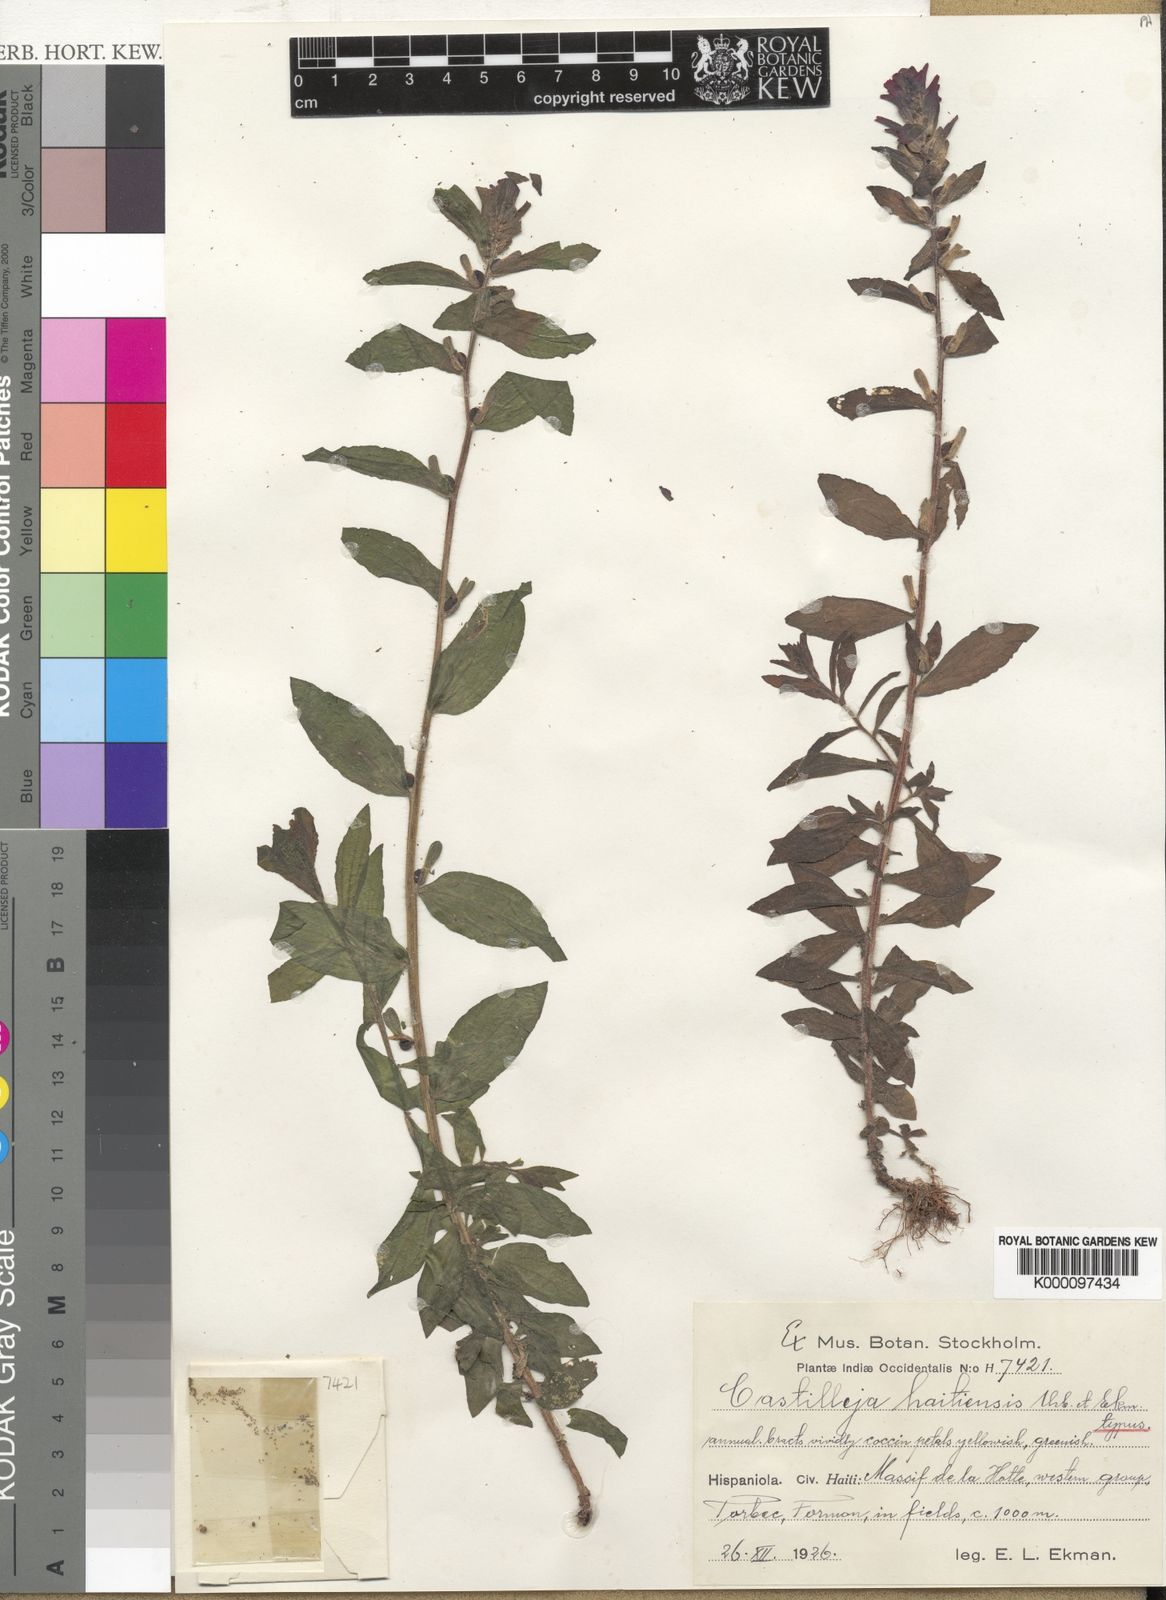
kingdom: Plantae
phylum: Tracheophyta
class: Magnoliopsida
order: Lamiales
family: Orobanchaceae
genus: Castilleja
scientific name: Castilleja arvensis
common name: Indian paintbrush
